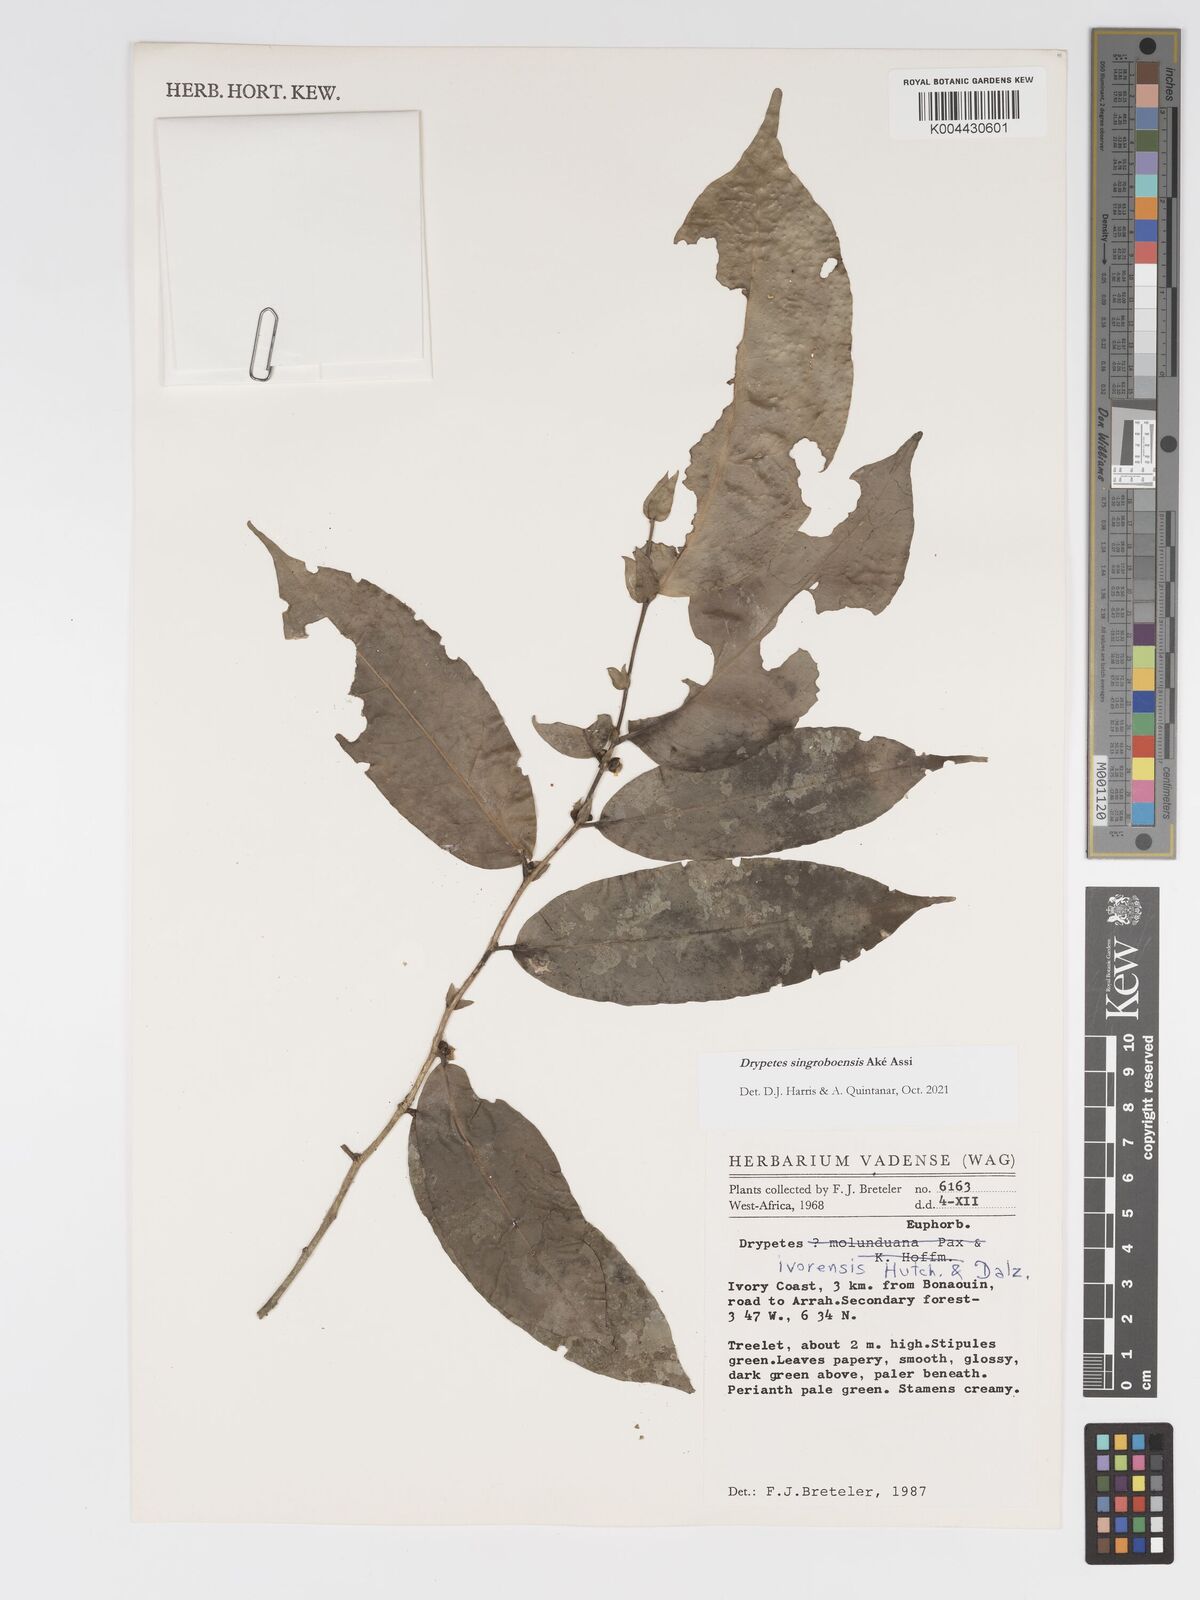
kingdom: Plantae
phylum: Tracheophyta
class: Magnoliopsida
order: Malpighiales
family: Putranjivaceae
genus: Drypetes
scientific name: Drypetes singroboensis
